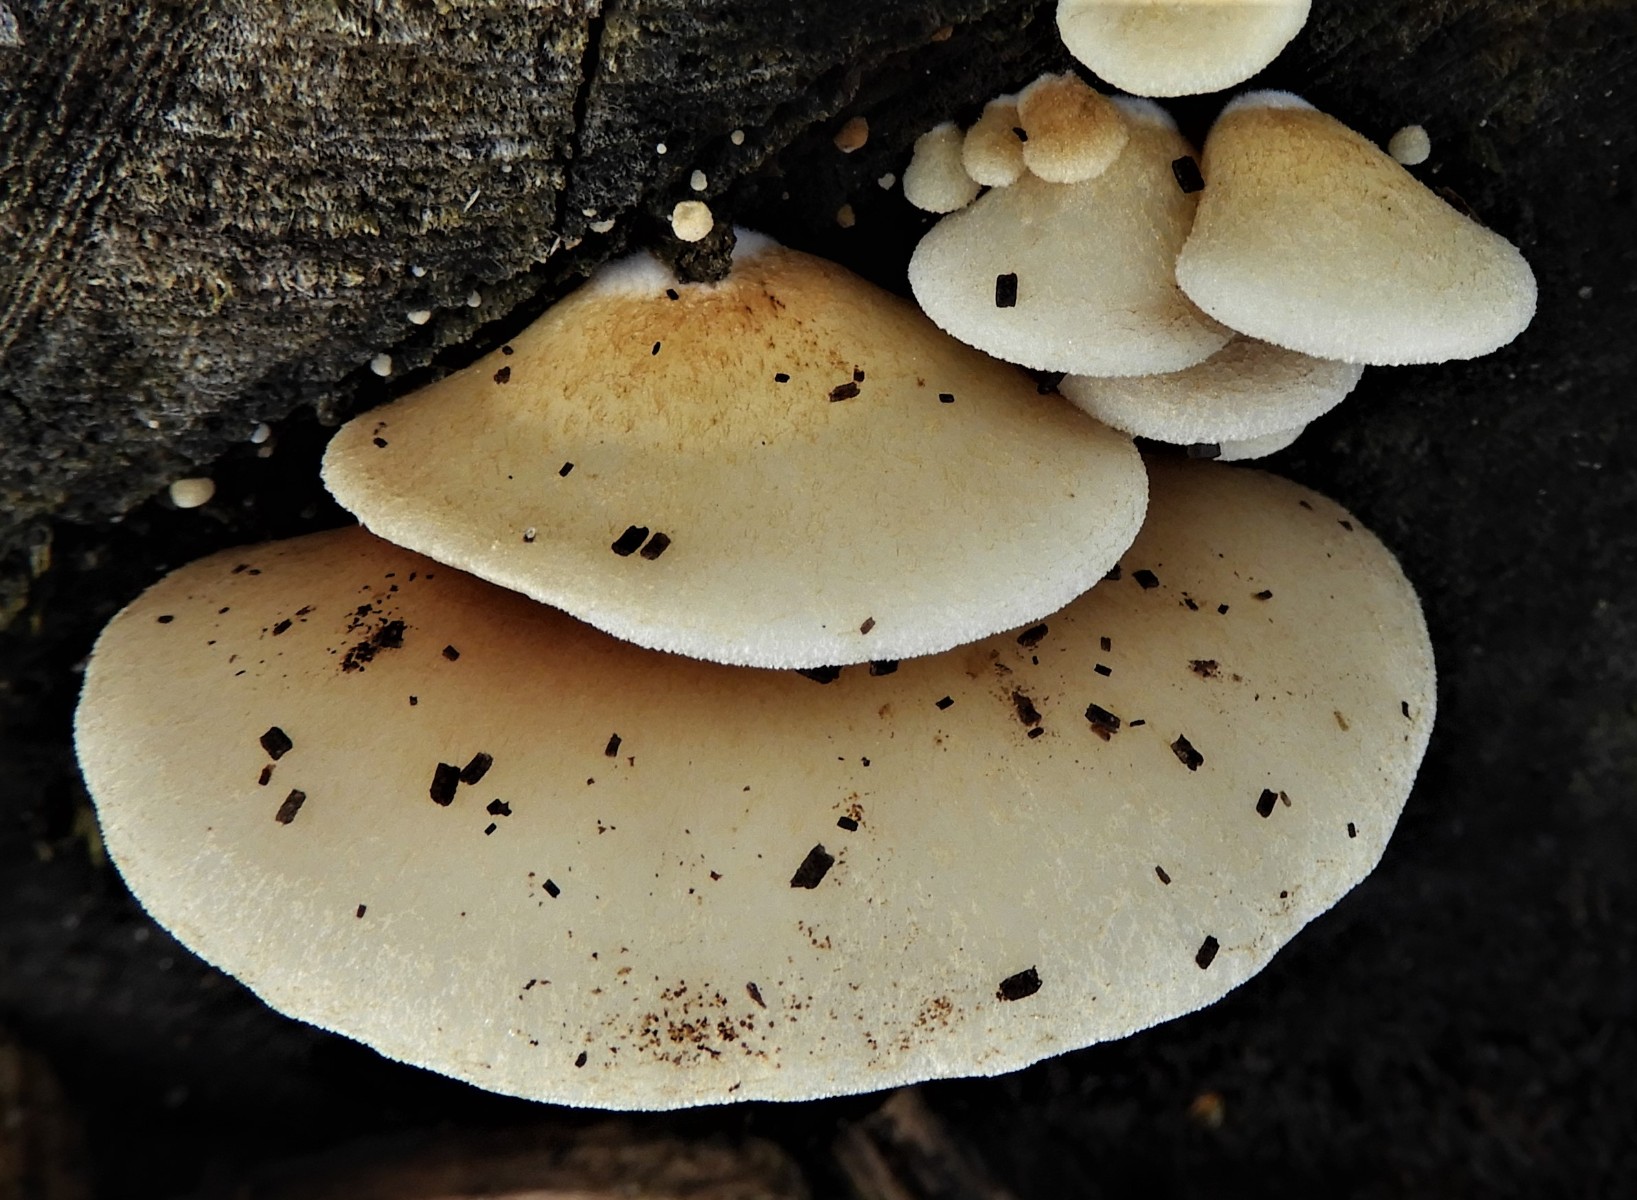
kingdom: Fungi
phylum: Basidiomycota
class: Agaricomycetes
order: Agaricales
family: Crepidotaceae
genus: Crepidotus
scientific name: Crepidotus calolepis
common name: småskællet muslingesvamp
